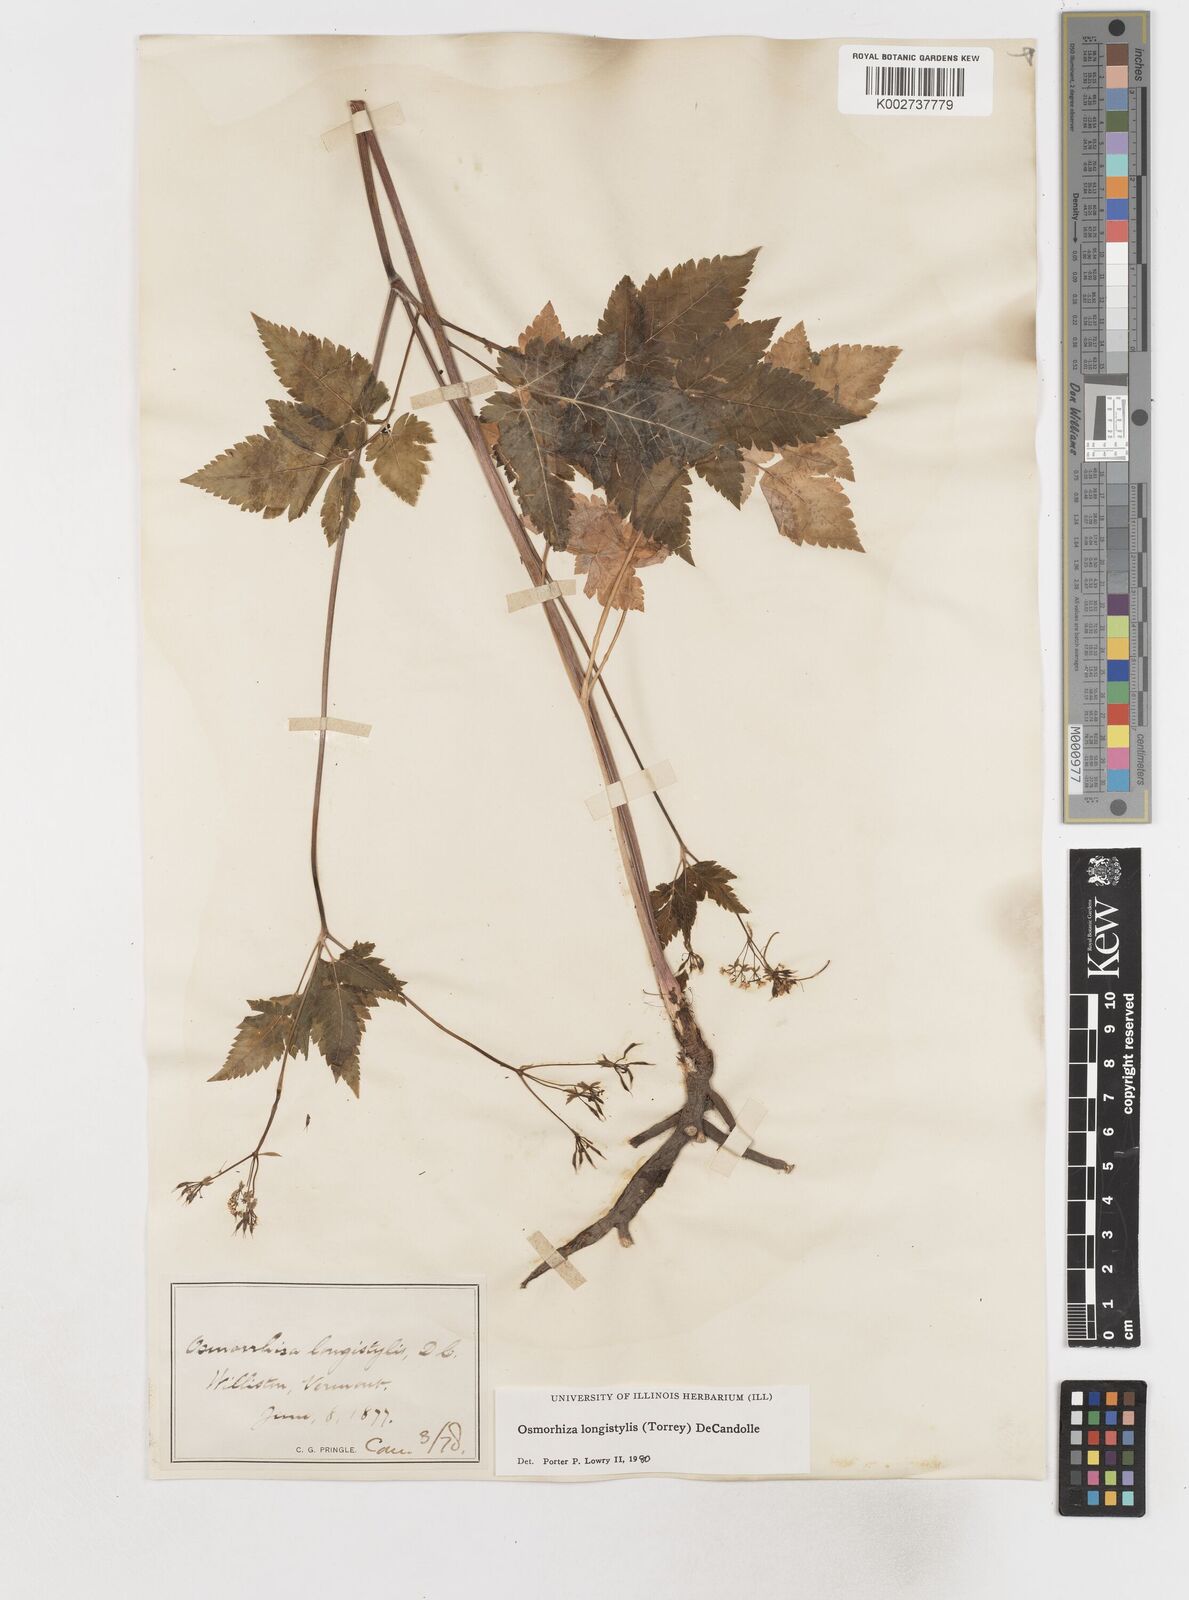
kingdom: Plantae
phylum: Tracheophyta
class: Magnoliopsida
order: Apiales
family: Apiaceae
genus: Osmorhiza
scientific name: Osmorhiza longistylis
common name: Smooth sweet cicely
